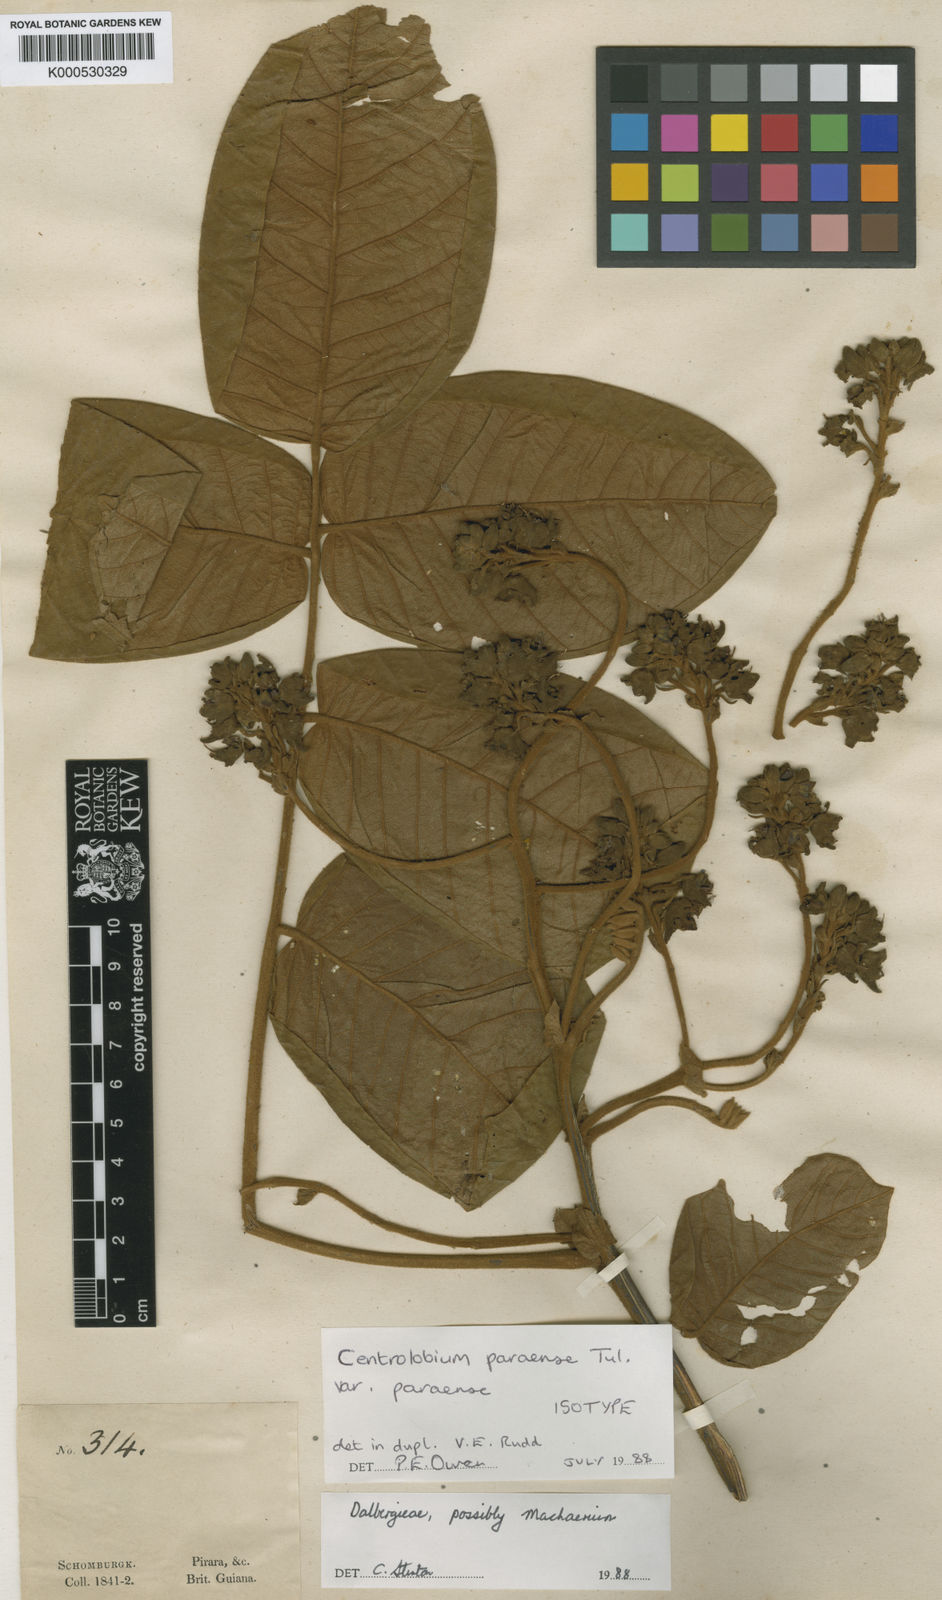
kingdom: Plantae
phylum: Tracheophyta
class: Magnoliopsida
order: Fabales
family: Fabaceae
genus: Centrolobium
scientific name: Centrolobium paraense
